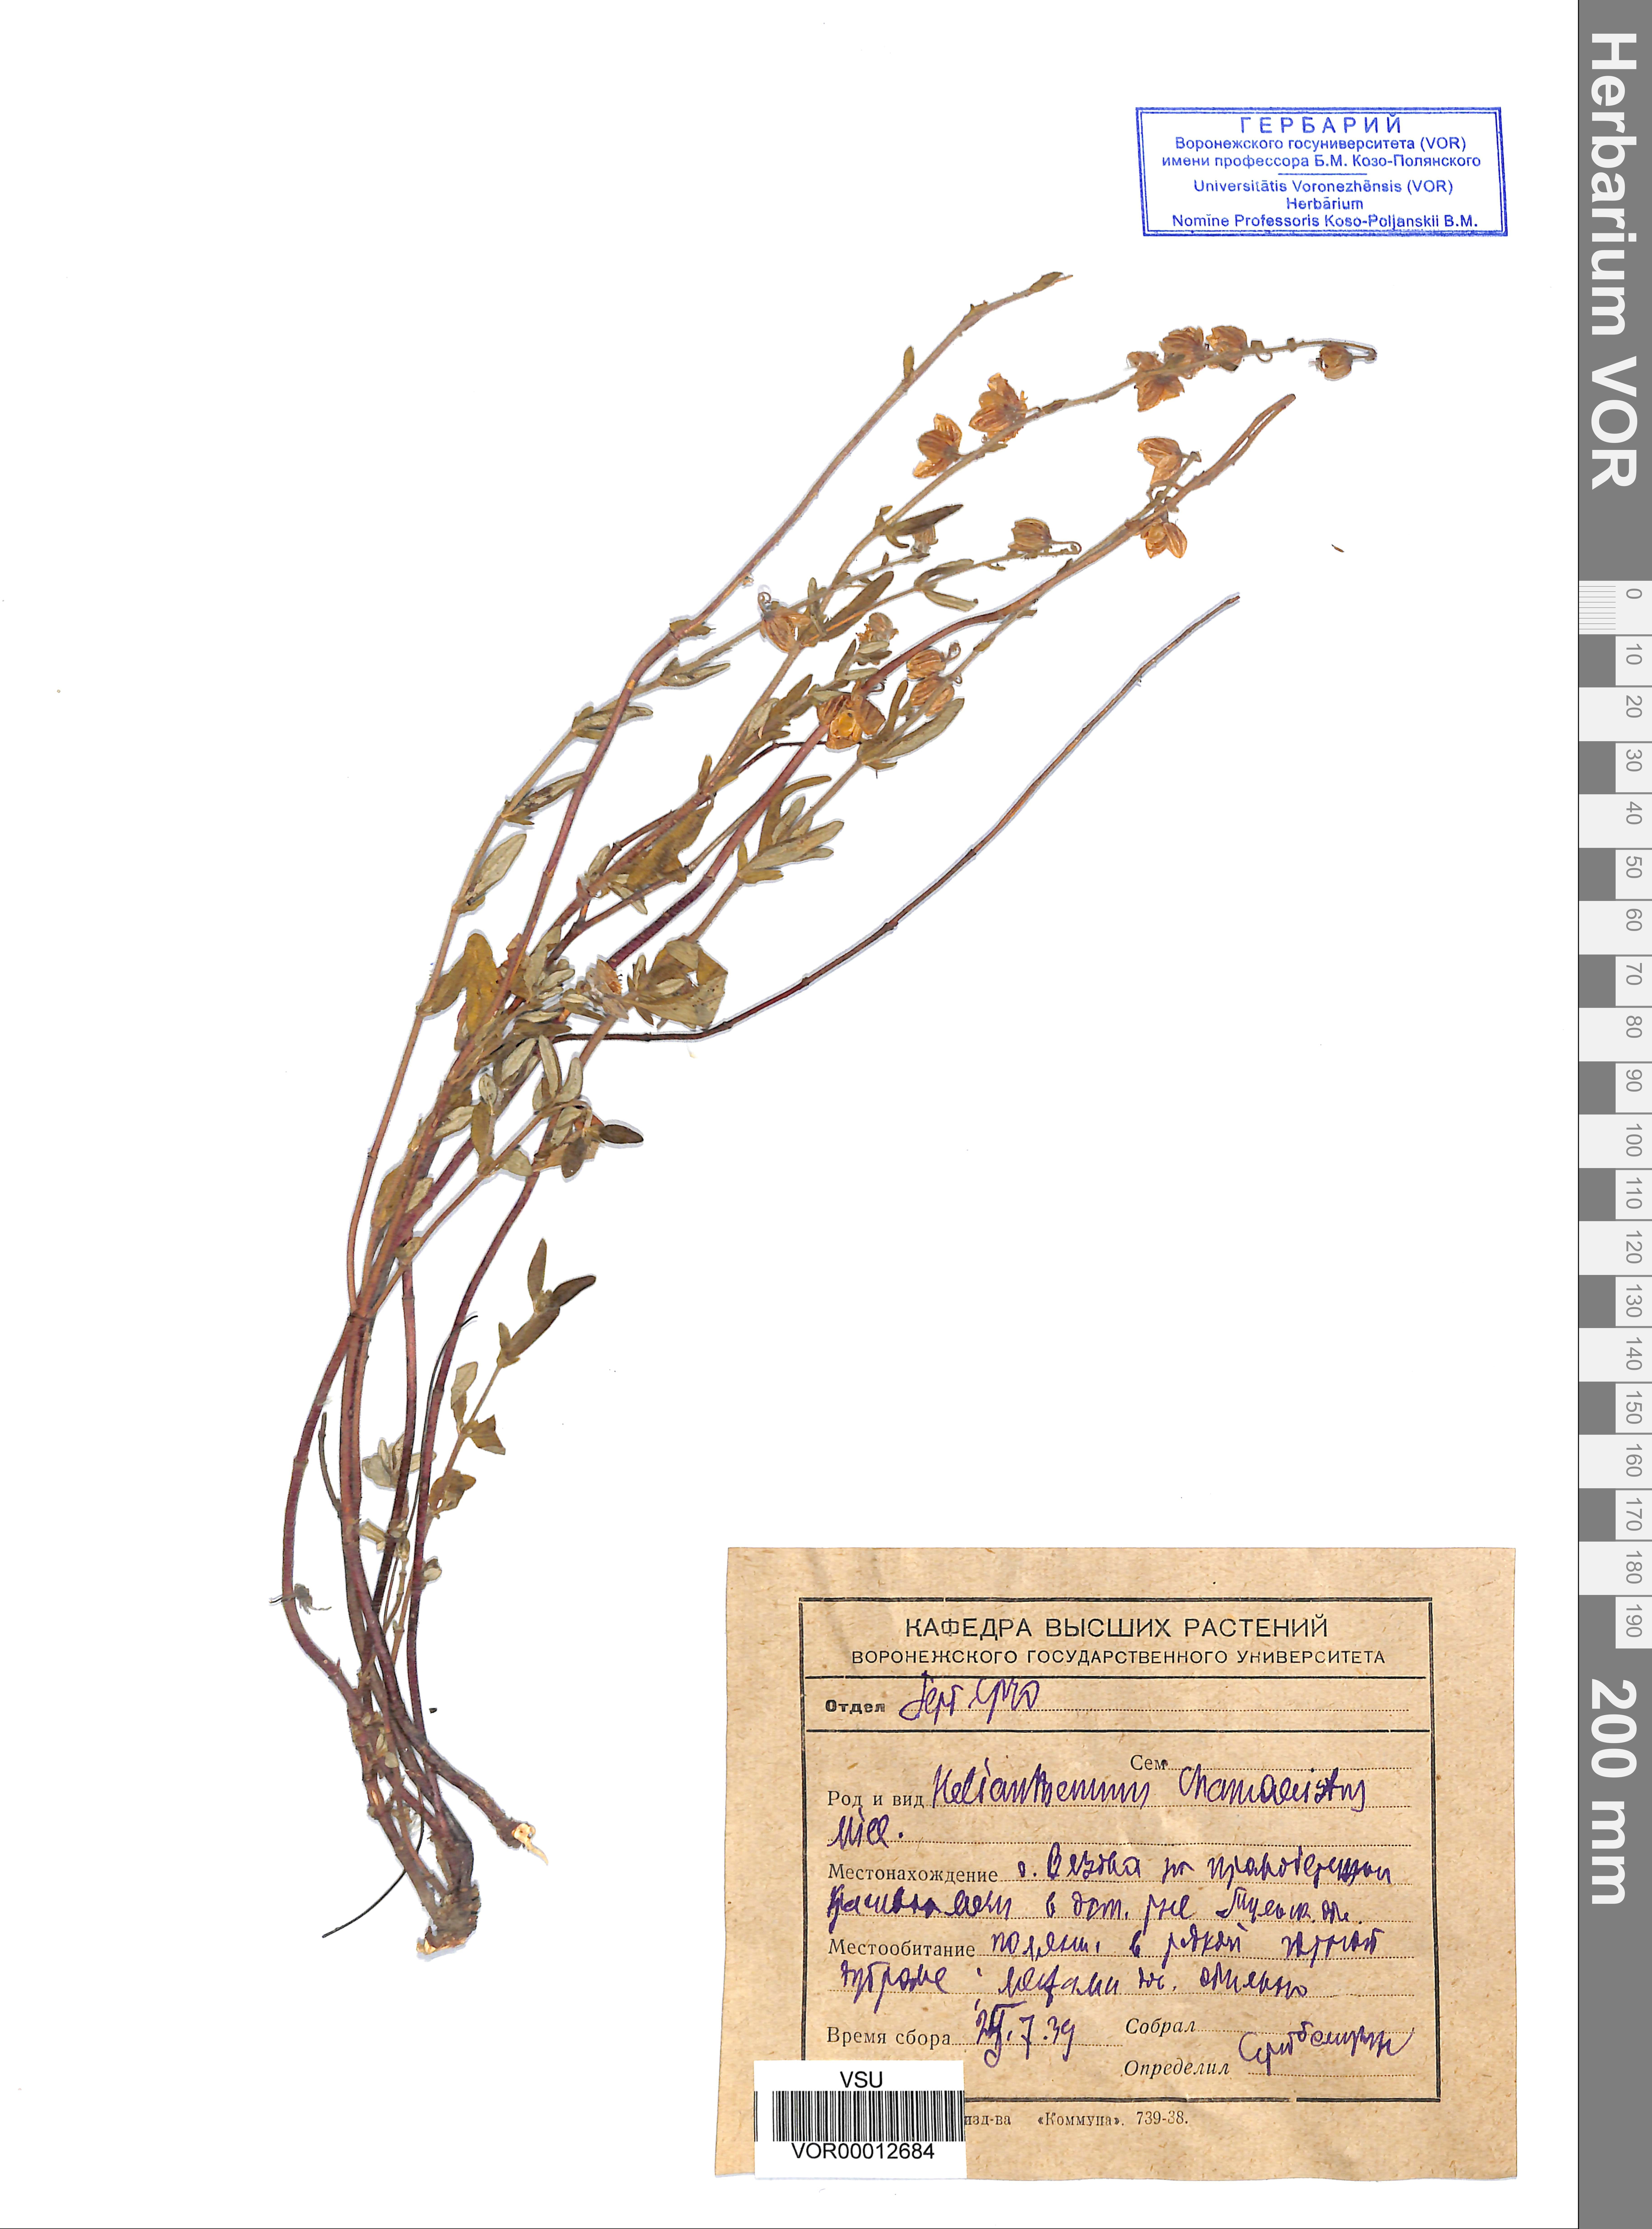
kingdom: Plantae
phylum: Tracheophyta
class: Magnoliopsida
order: Malvales
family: Cistaceae
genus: Helianthemum
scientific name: Helianthemum nummularium
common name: Common rock-rose
